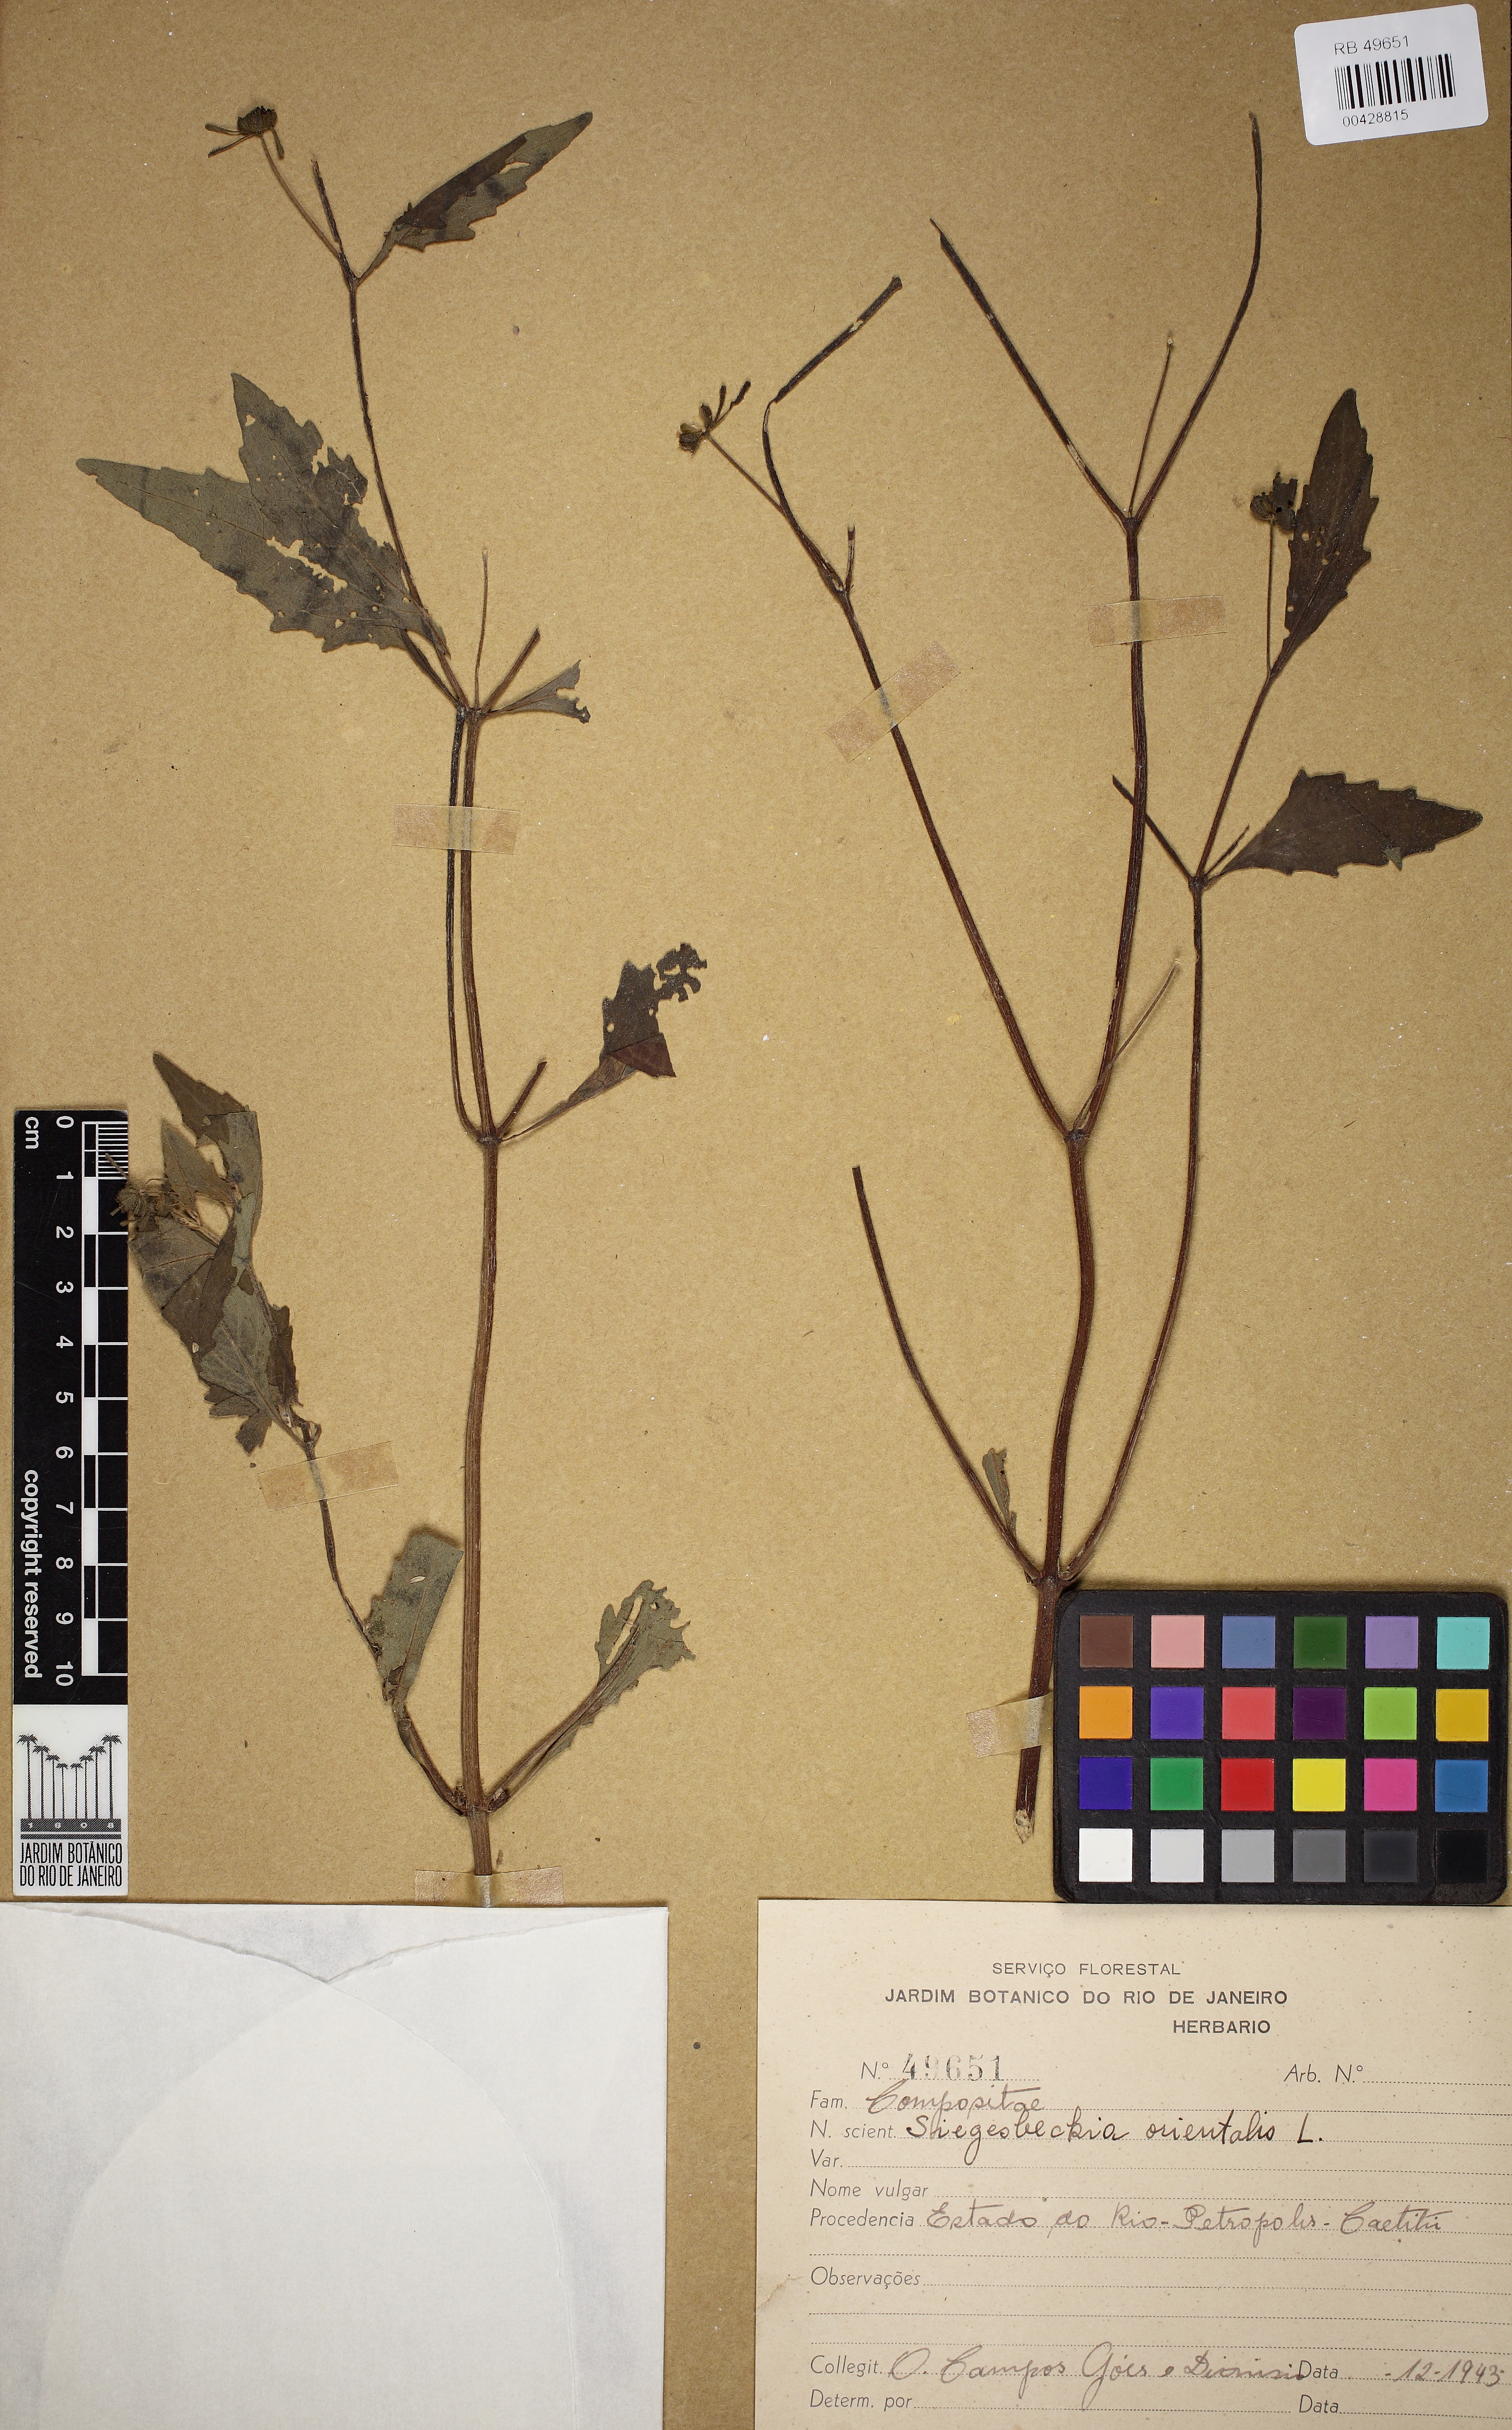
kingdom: Plantae
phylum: Tracheophyta
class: Magnoliopsida
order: Asterales
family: Asteraceae
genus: Sigesbeckia
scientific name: Sigesbeckia orientalis
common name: Eastern st paul's-wort
